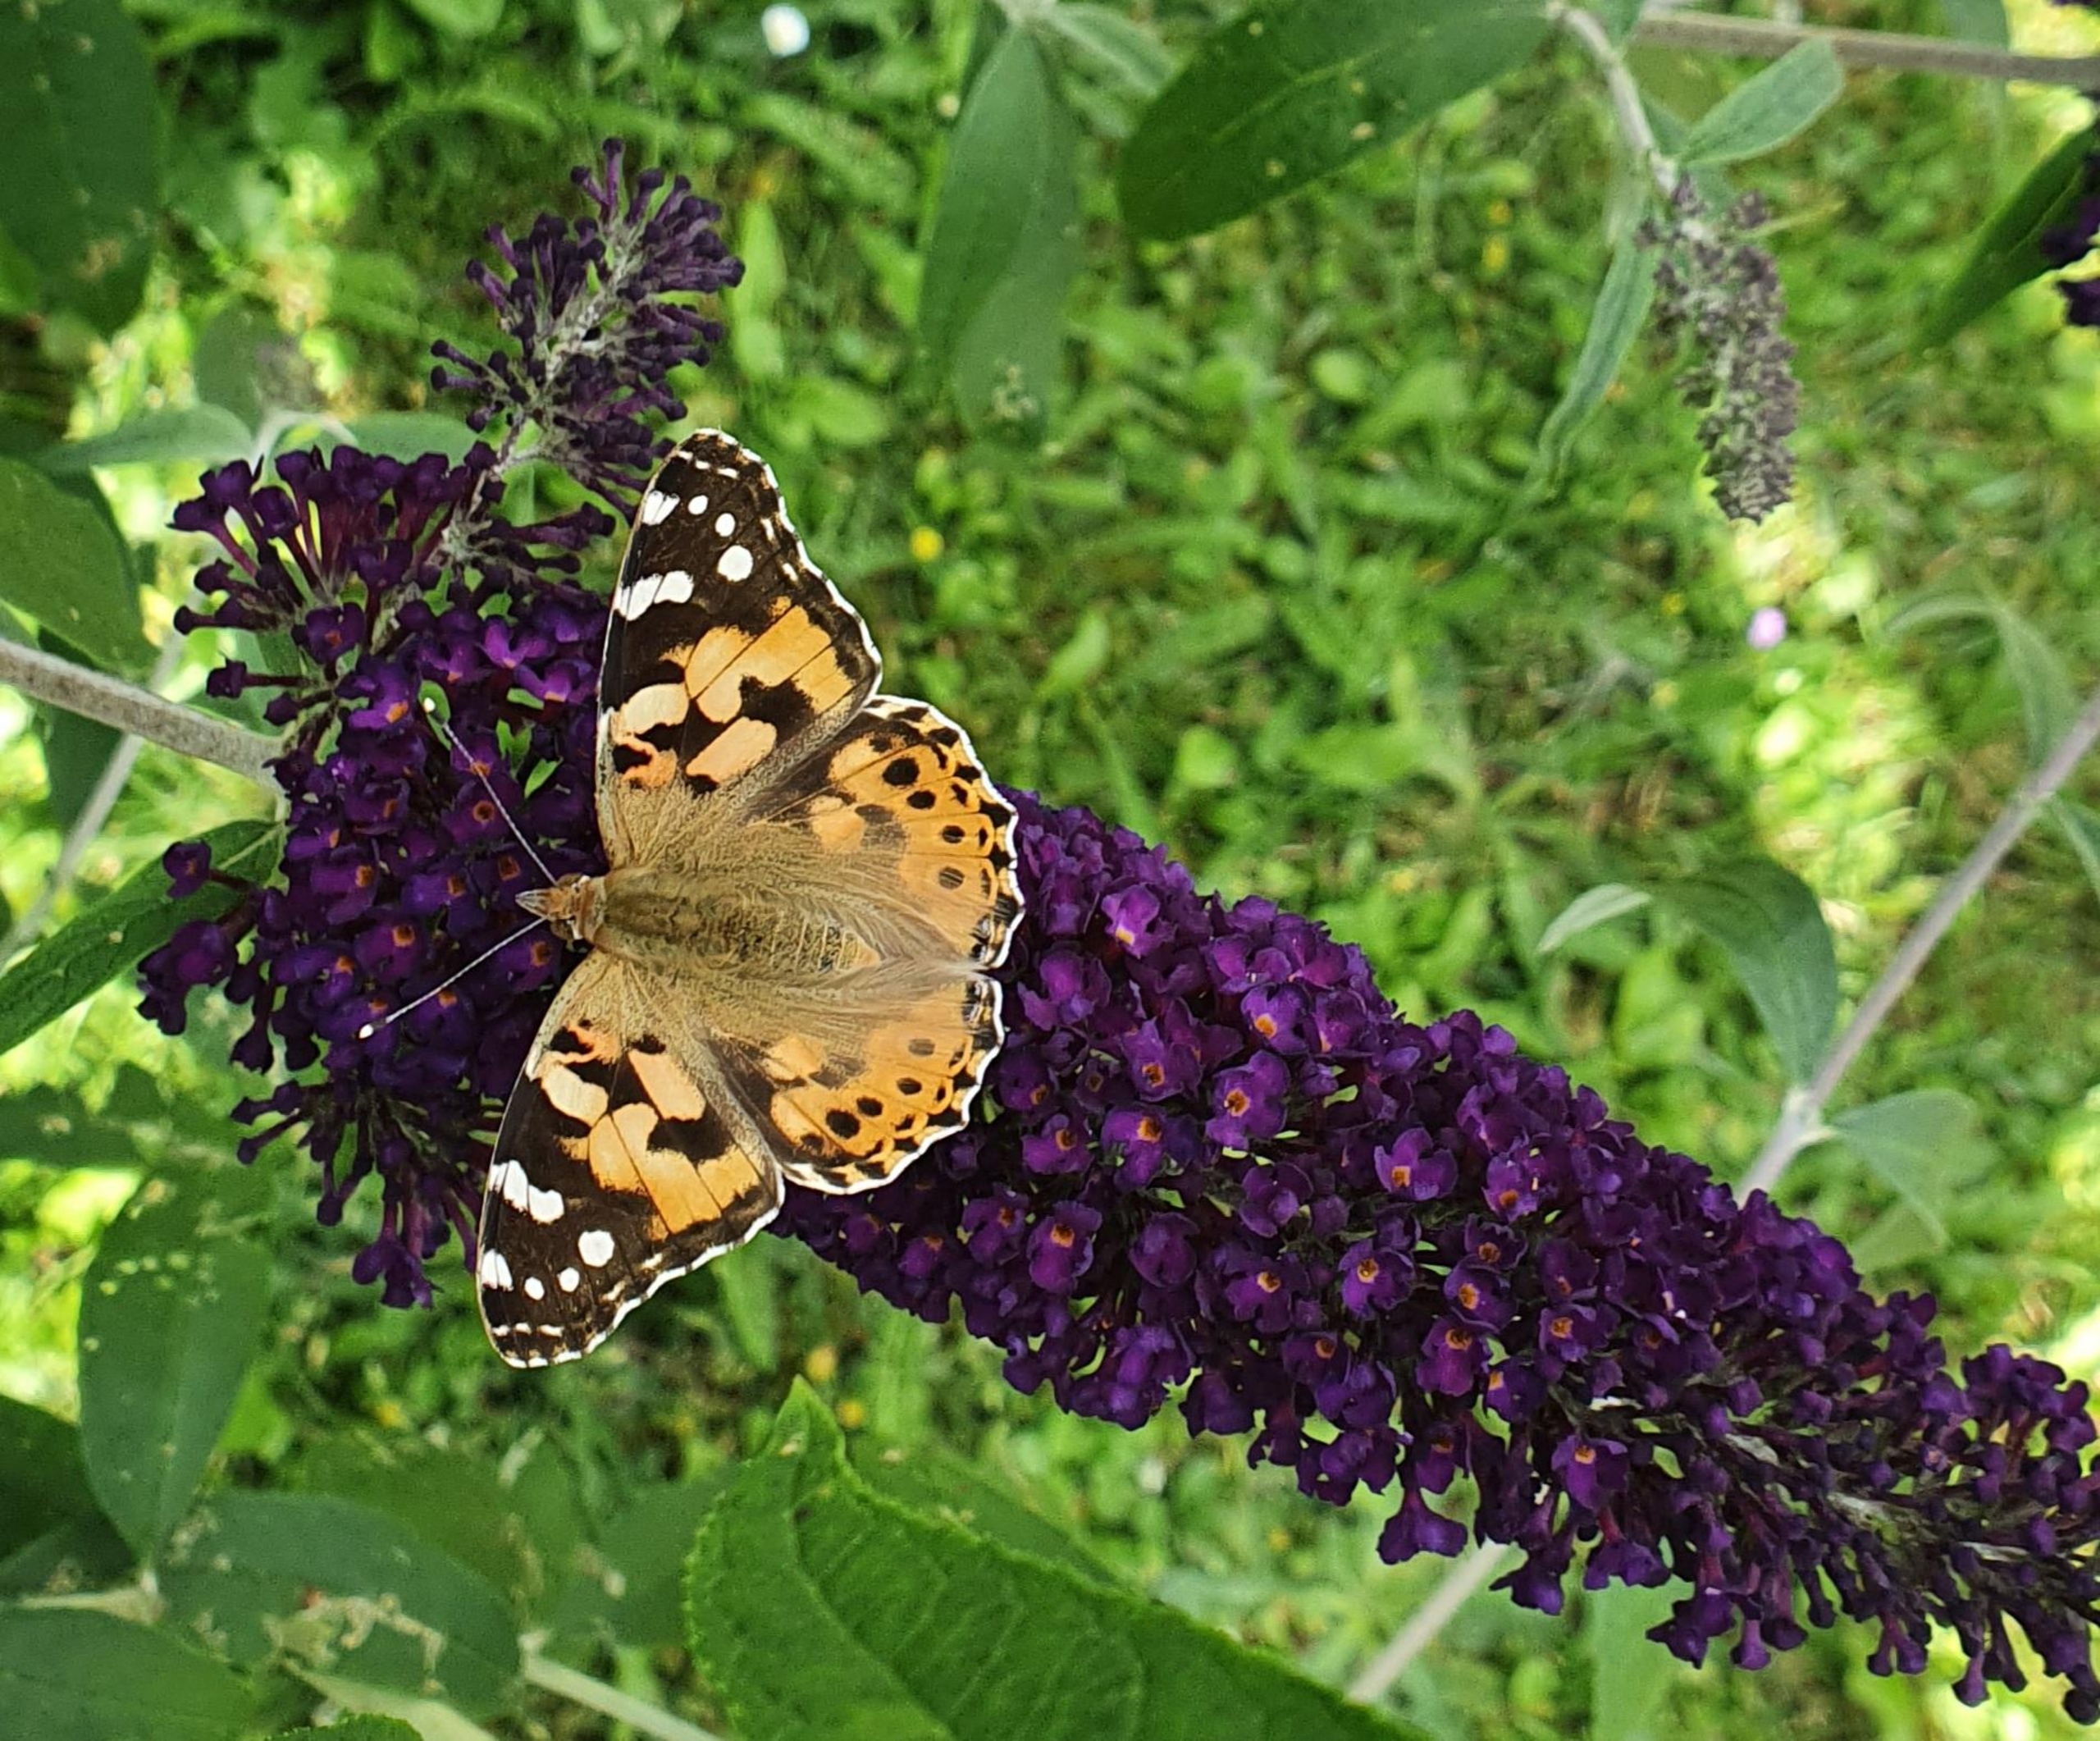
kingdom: Animalia
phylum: Arthropoda
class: Insecta
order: Lepidoptera
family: Nymphalidae
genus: Vanessa
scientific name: Vanessa cardui
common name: Tidselsommerfugl
